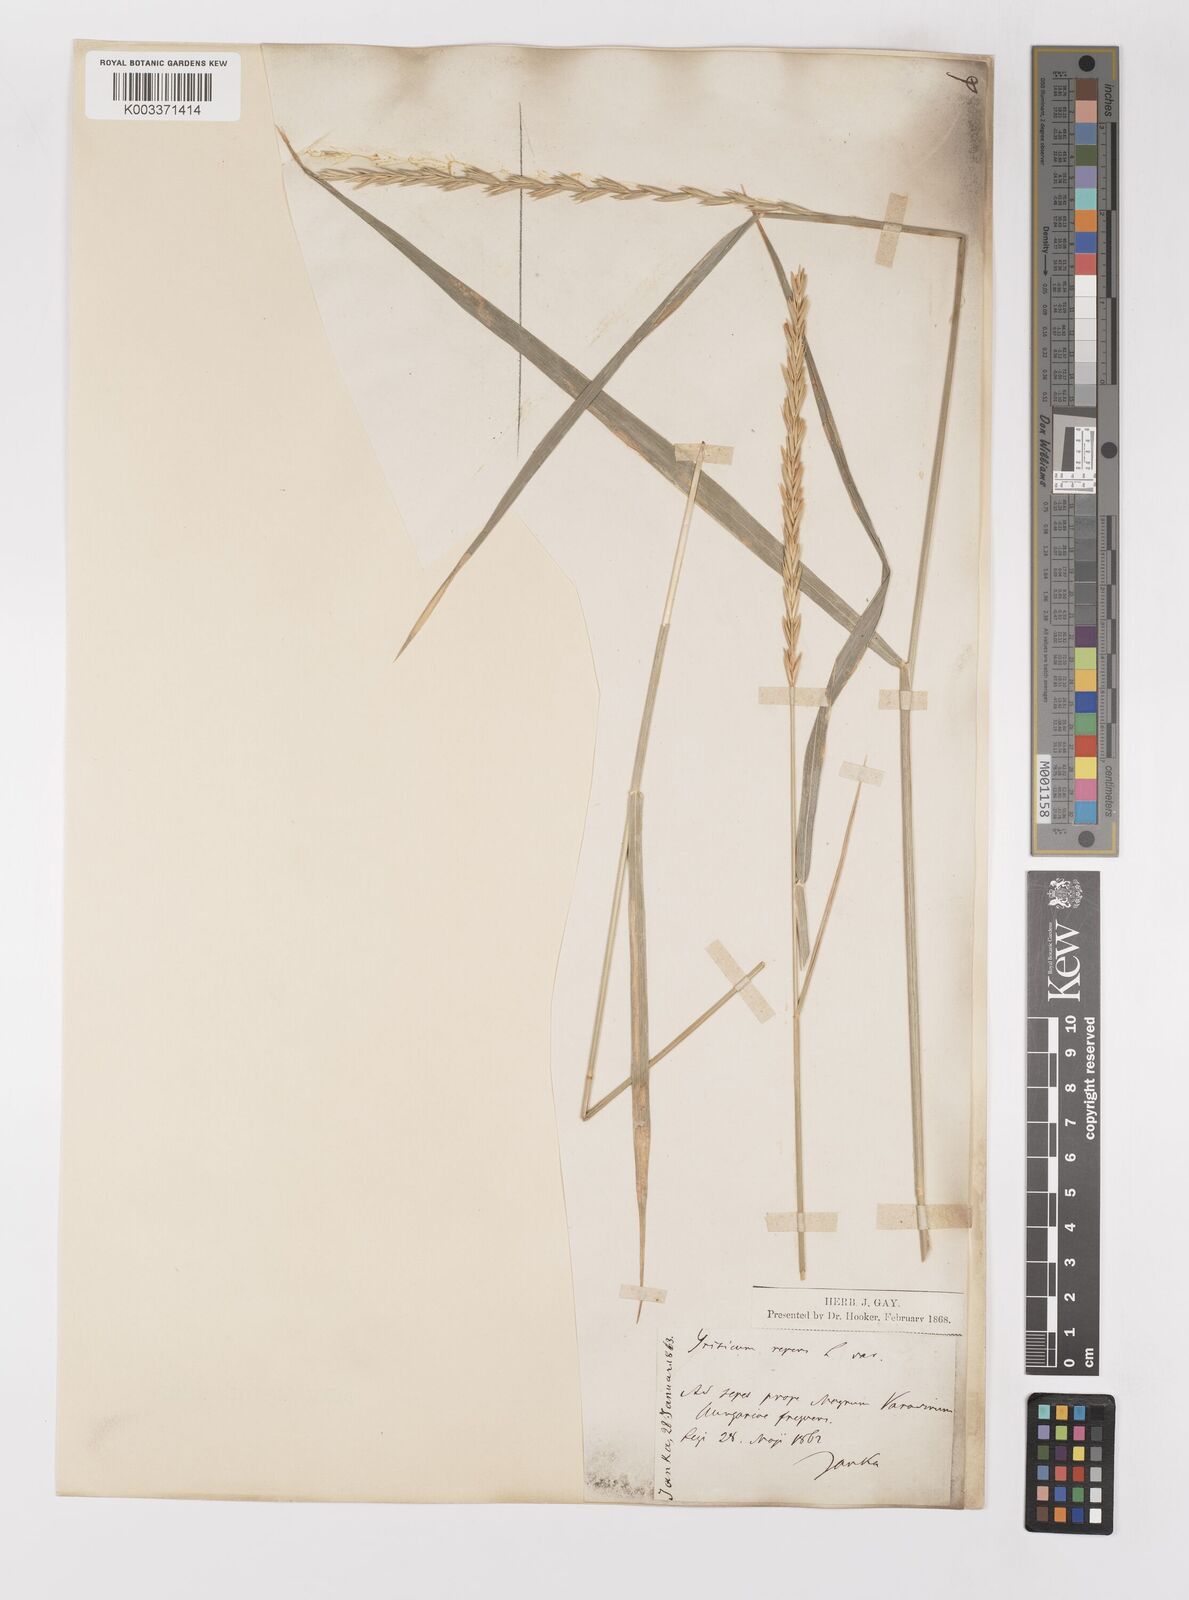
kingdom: Plantae
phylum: Tracheophyta
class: Liliopsida
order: Poales
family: Poaceae
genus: Elymus
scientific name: Elymus repens
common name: Quackgrass
